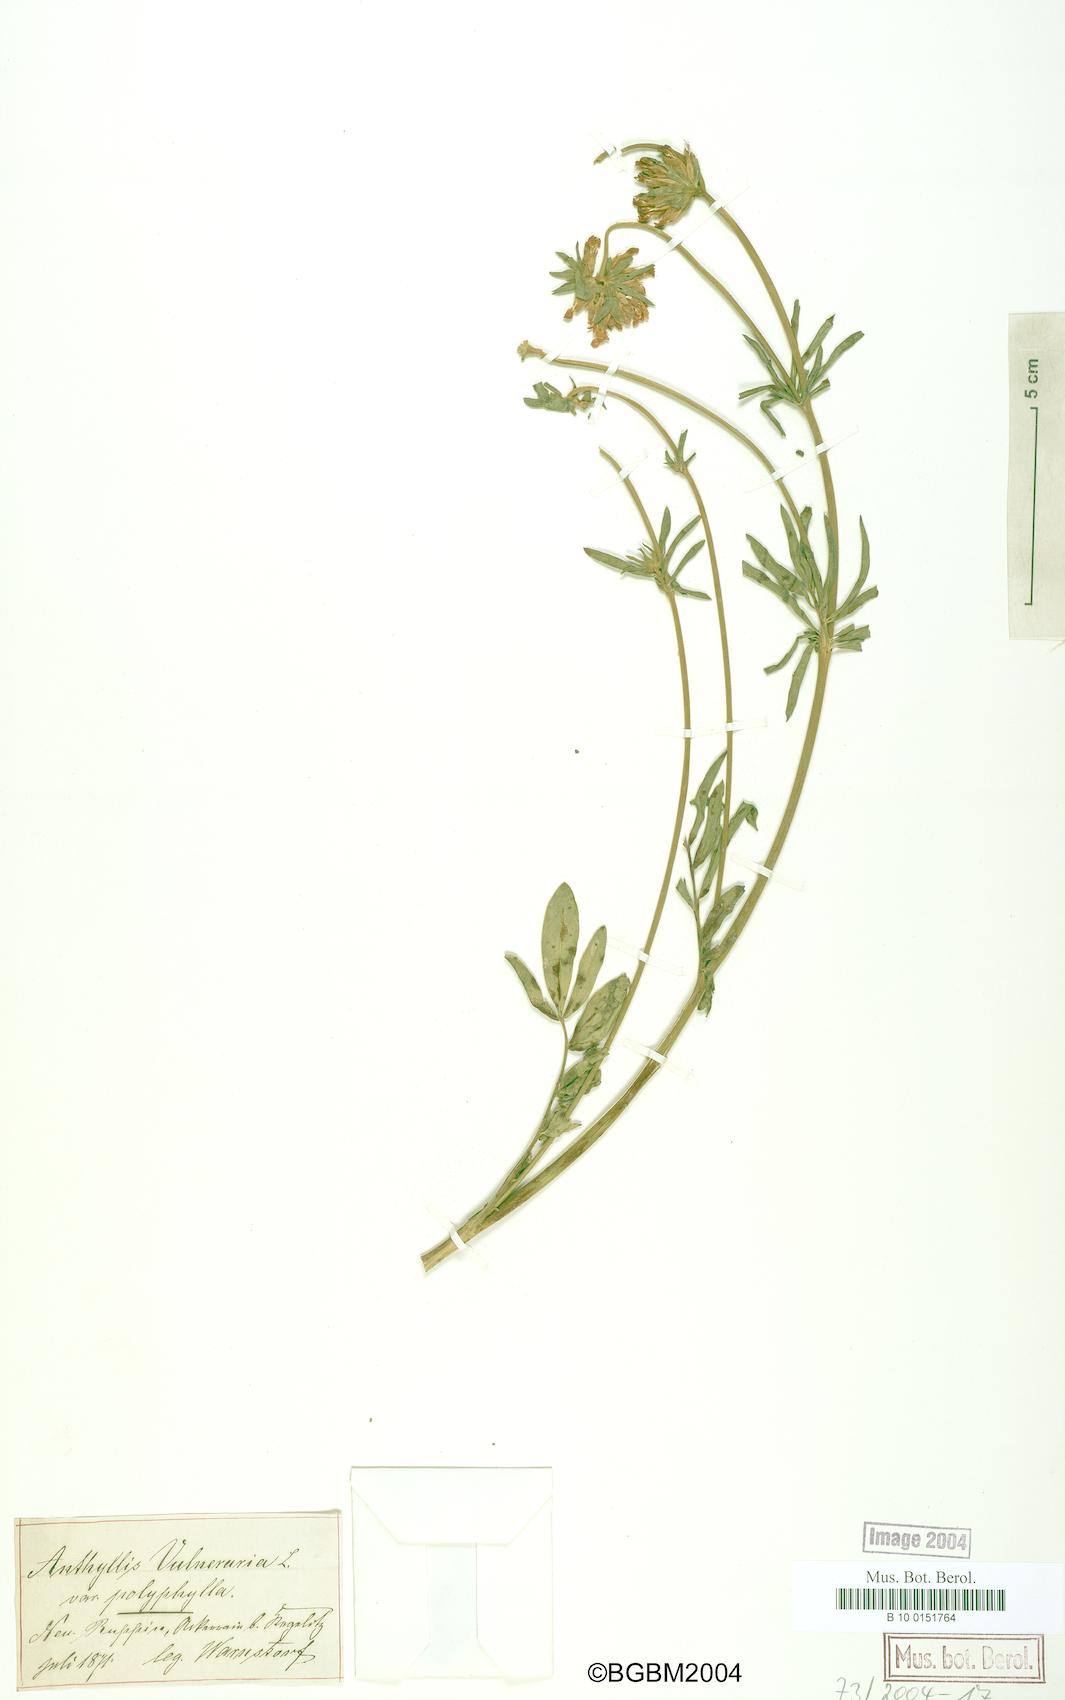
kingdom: Plantae
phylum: Tracheophyta
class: Magnoliopsida
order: Fabales
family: Fabaceae
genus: Anthyllis
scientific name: Anthyllis vulneraria
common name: Kidney vetch
